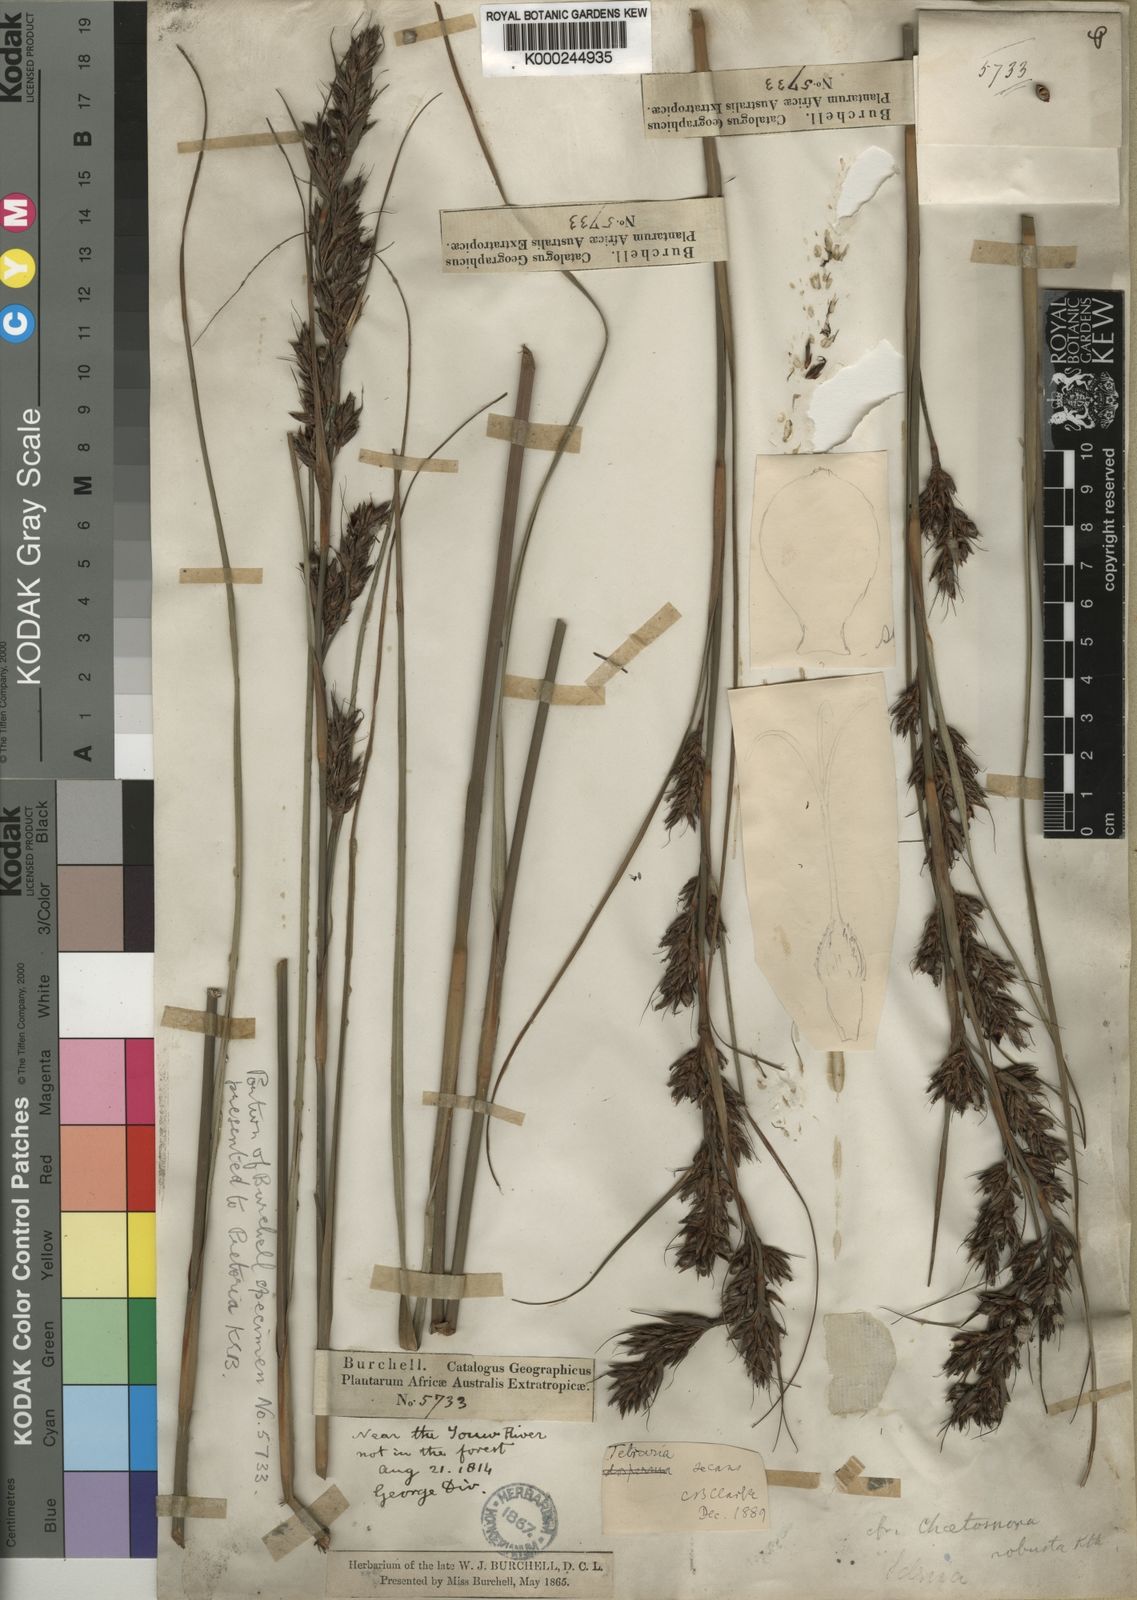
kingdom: Plantae
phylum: Tracheophyta
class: Liliopsida
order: Poales
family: Cyperaceae
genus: Tetraria
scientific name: Tetraria secans
